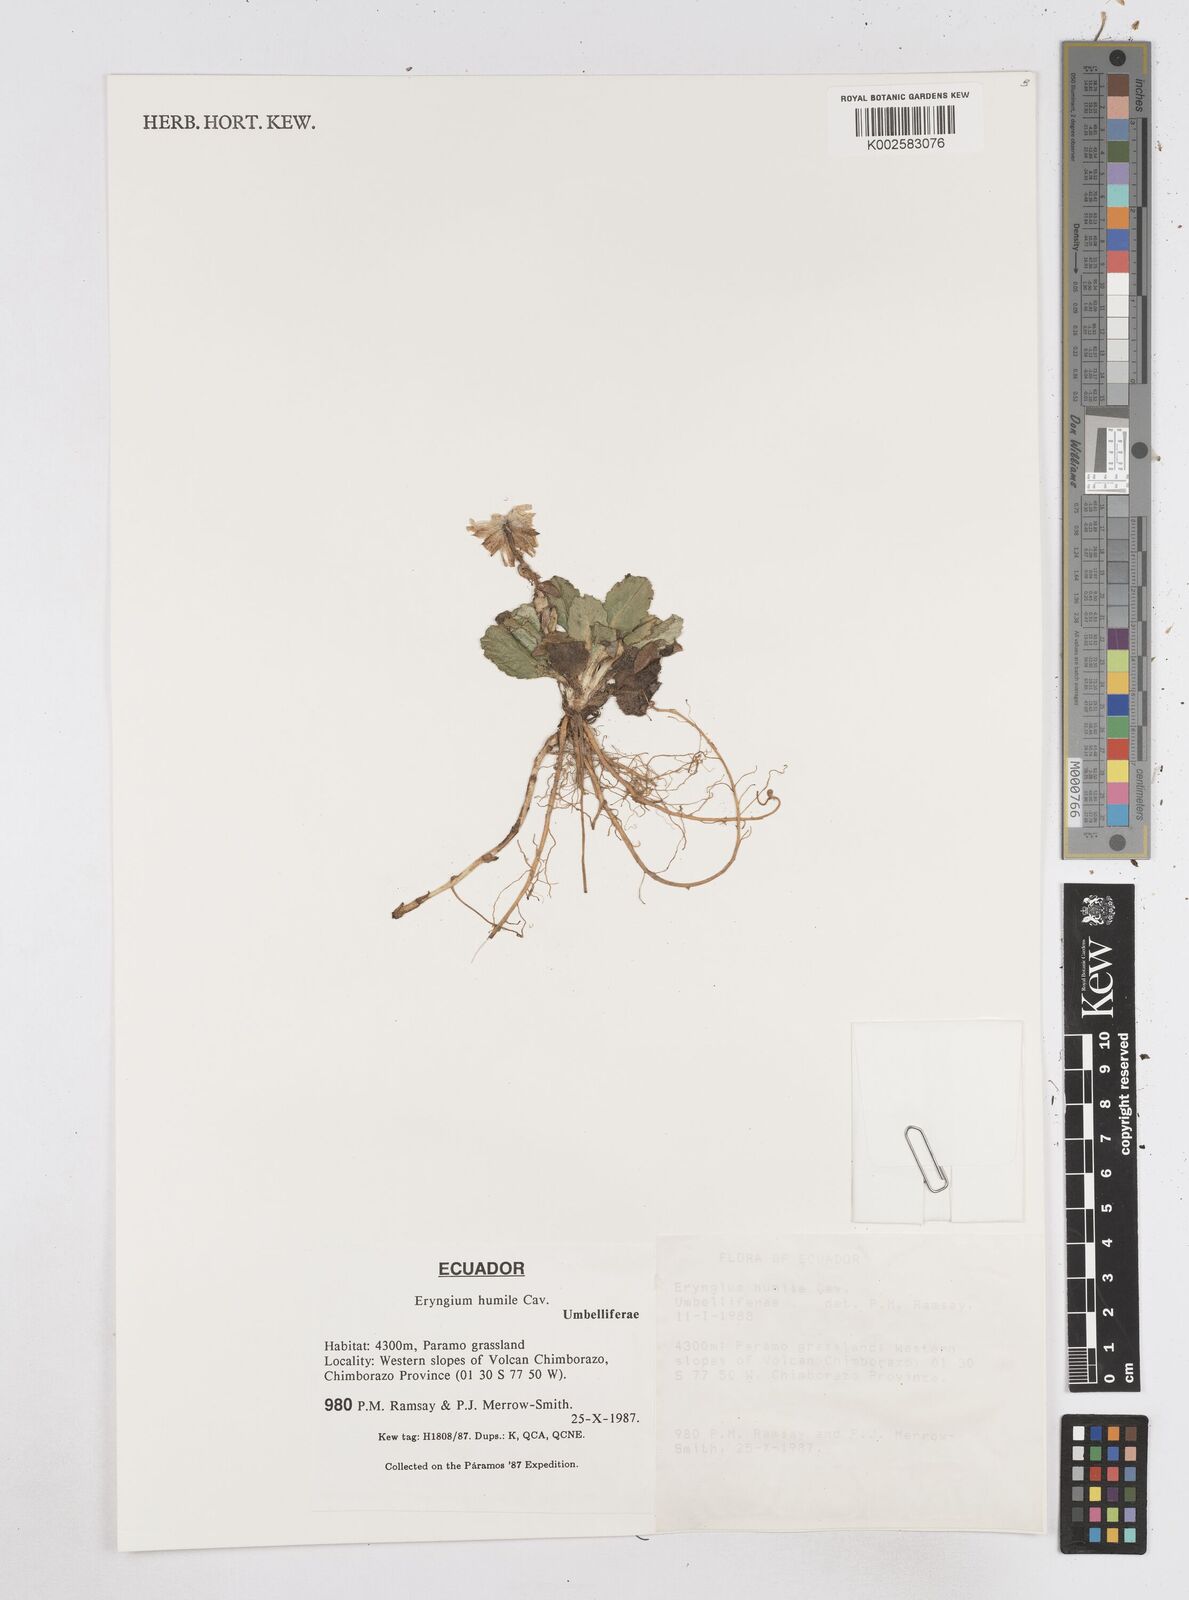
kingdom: Plantae
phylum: Tracheophyta
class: Magnoliopsida
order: Apiales
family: Apiaceae
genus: Eryngium
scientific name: Eryngium humile
